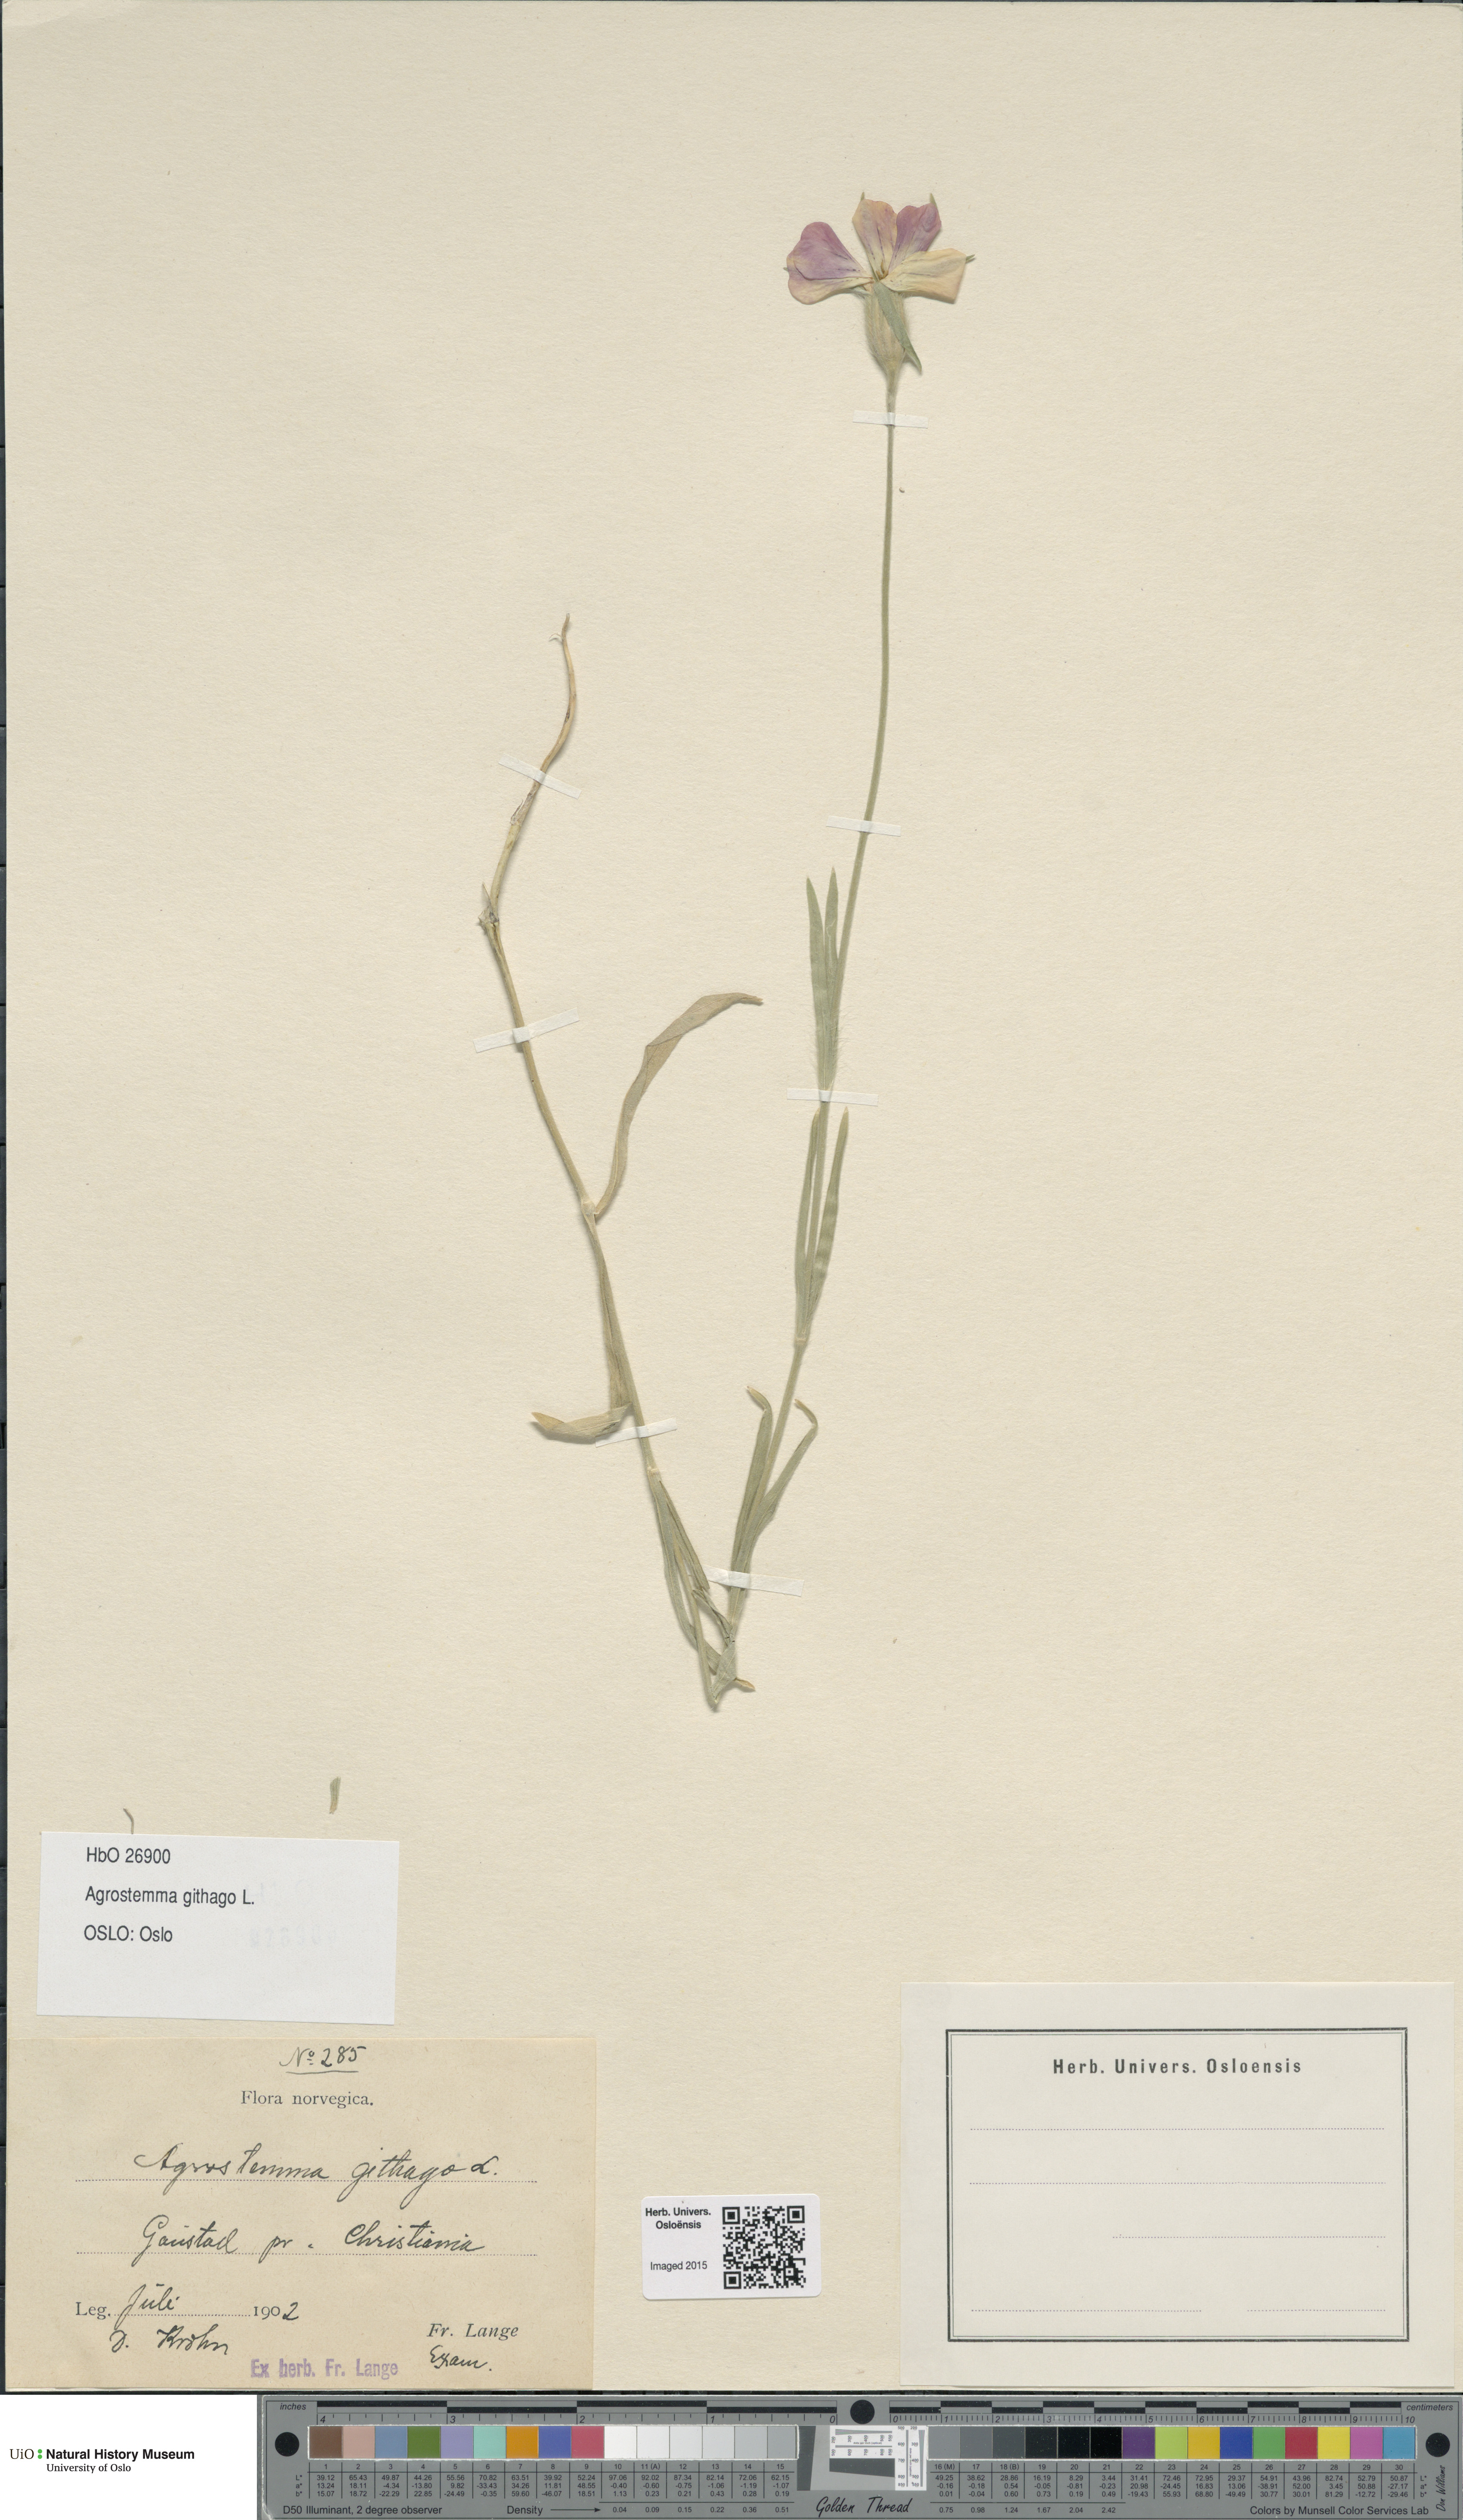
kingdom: Plantae
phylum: Tracheophyta
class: Magnoliopsida
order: Caryophyllales
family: Caryophyllaceae
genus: Agrostemma
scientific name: Agrostemma githago
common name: Common corncockle
